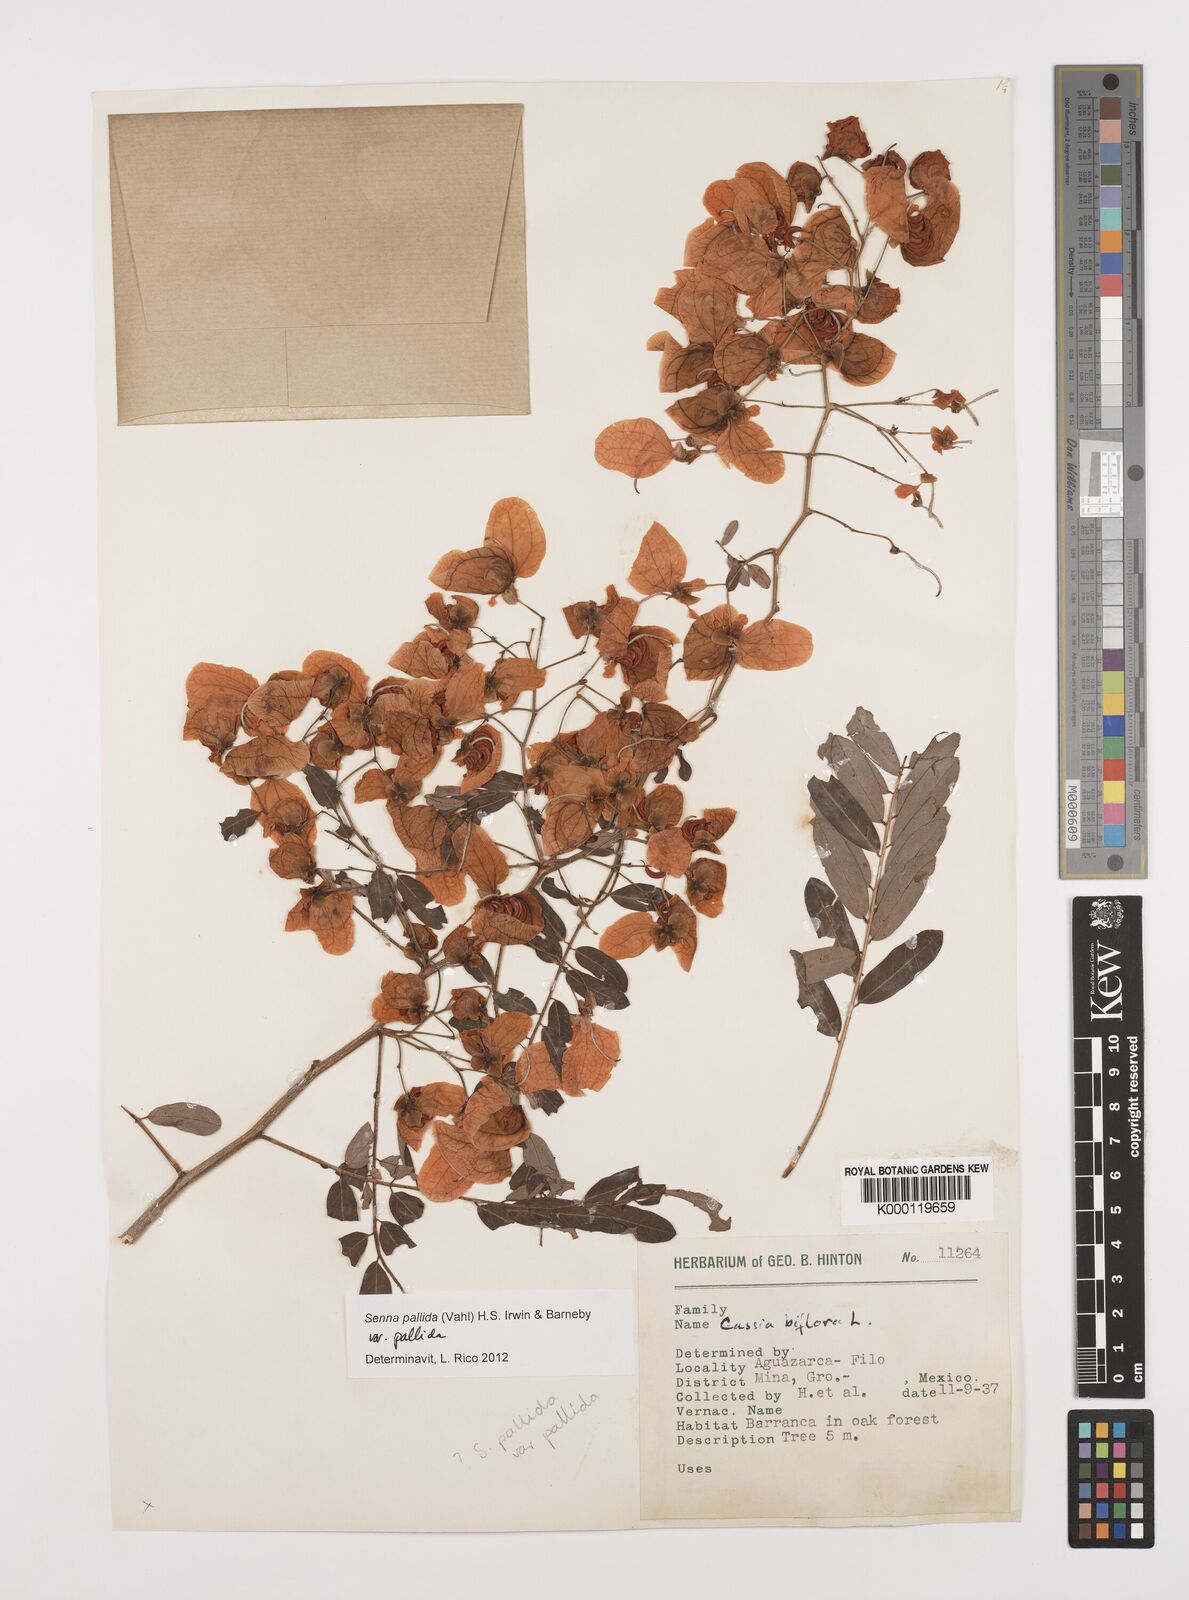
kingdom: Plantae
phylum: Tracheophyta
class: Magnoliopsida
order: Fabales
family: Fabaceae
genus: Senna
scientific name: Senna pallida
